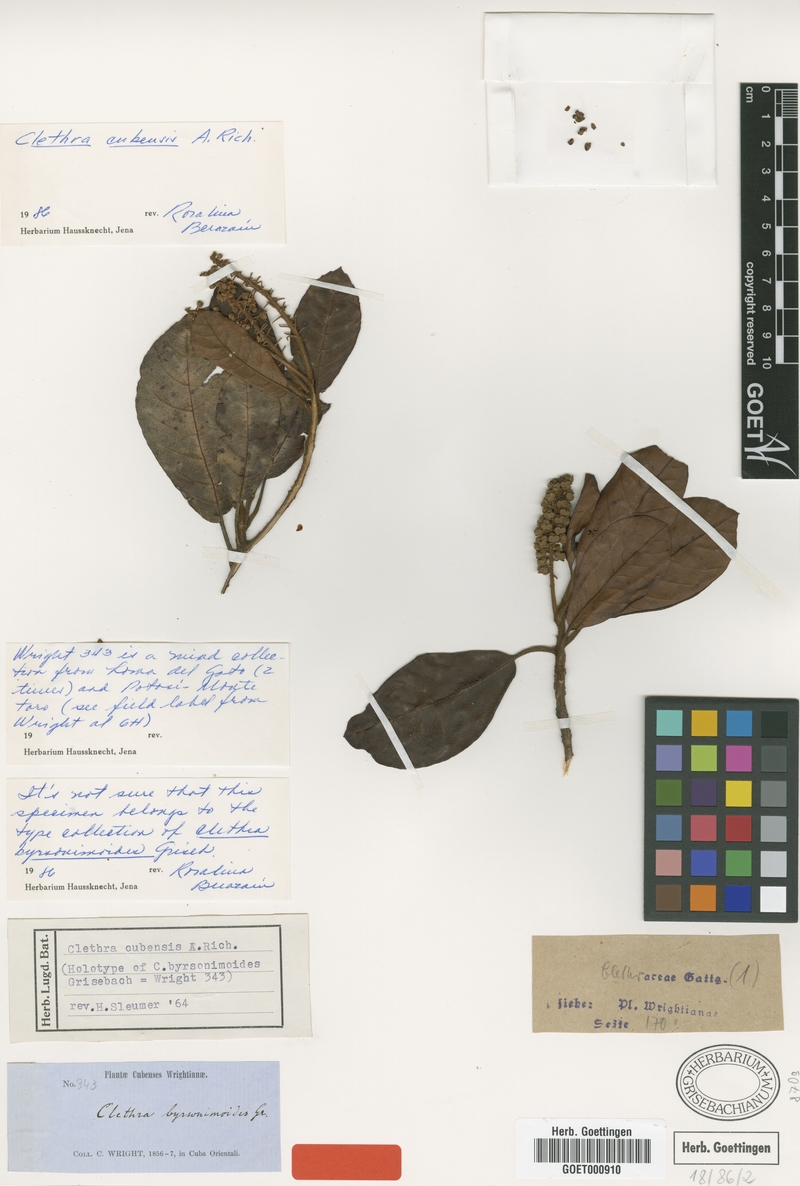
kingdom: Plantae
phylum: Tracheophyta
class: Magnoliopsida
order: Ericales
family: Clethraceae
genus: Clethra
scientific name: Clethra cubensis
